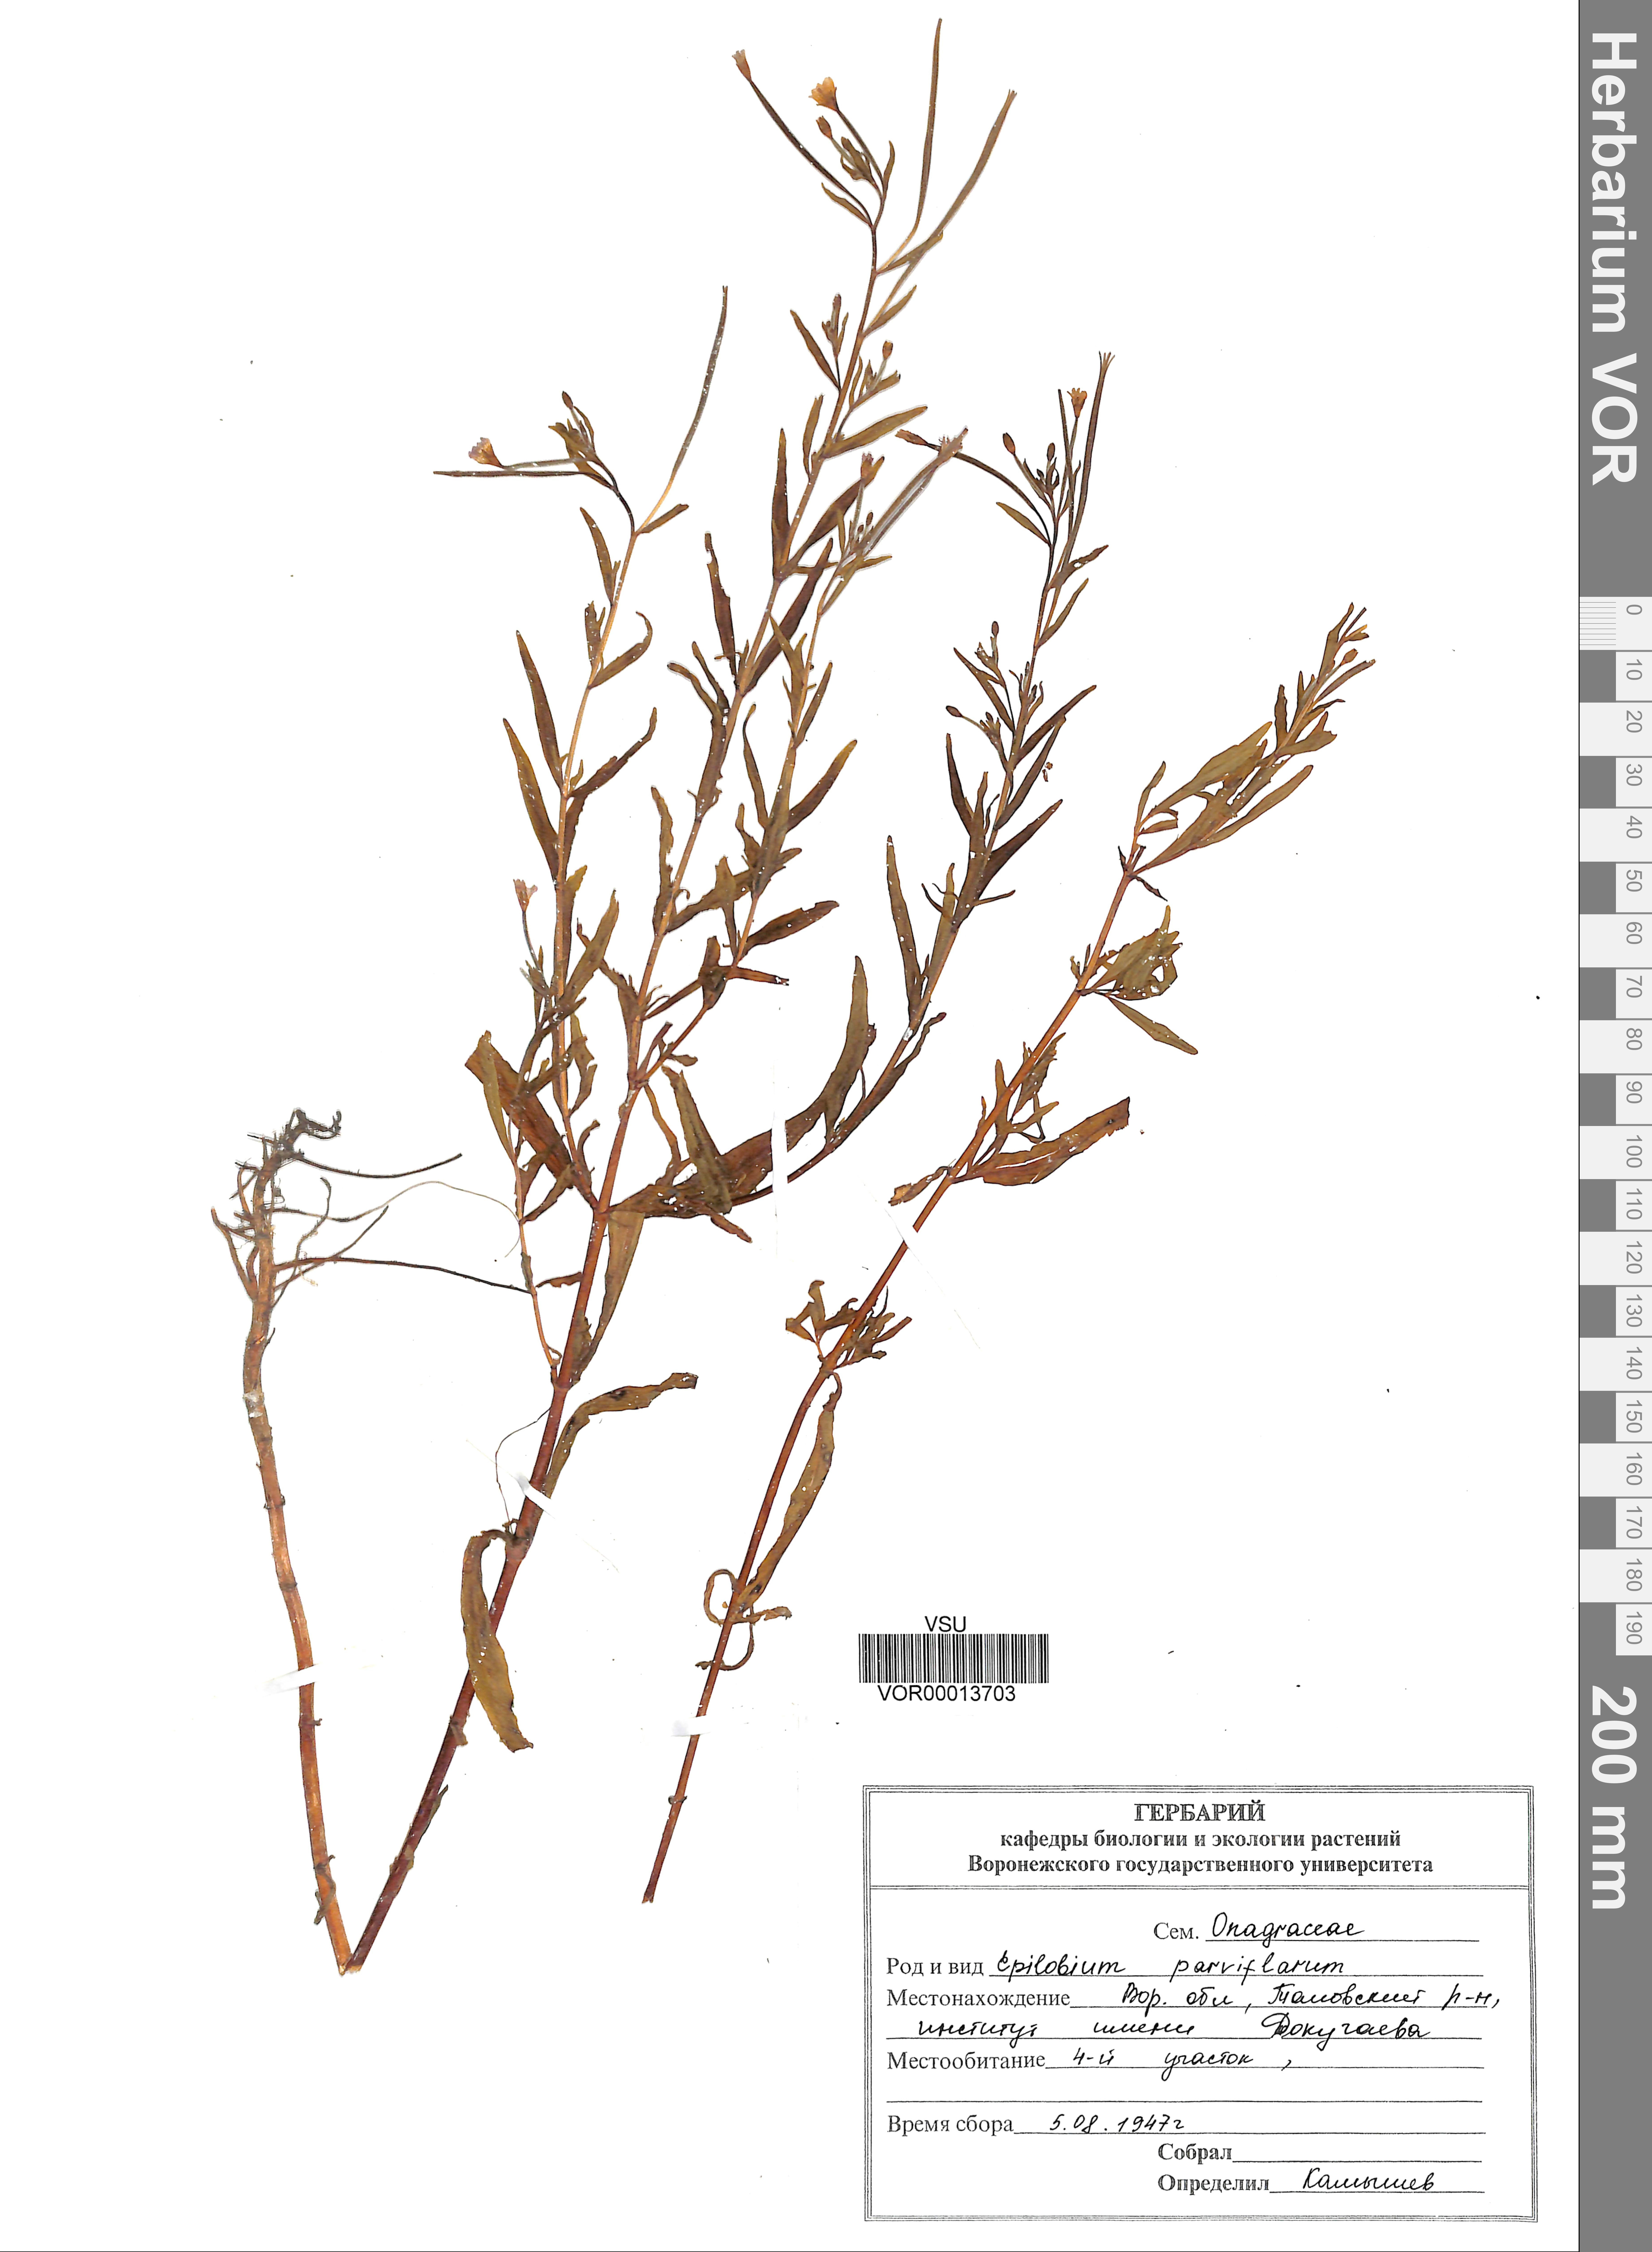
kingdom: Plantae
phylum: Tracheophyta
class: Magnoliopsida
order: Myrtales
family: Onagraceae
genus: Epilobium
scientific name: Epilobium parviflorum
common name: Hoary willowherb
